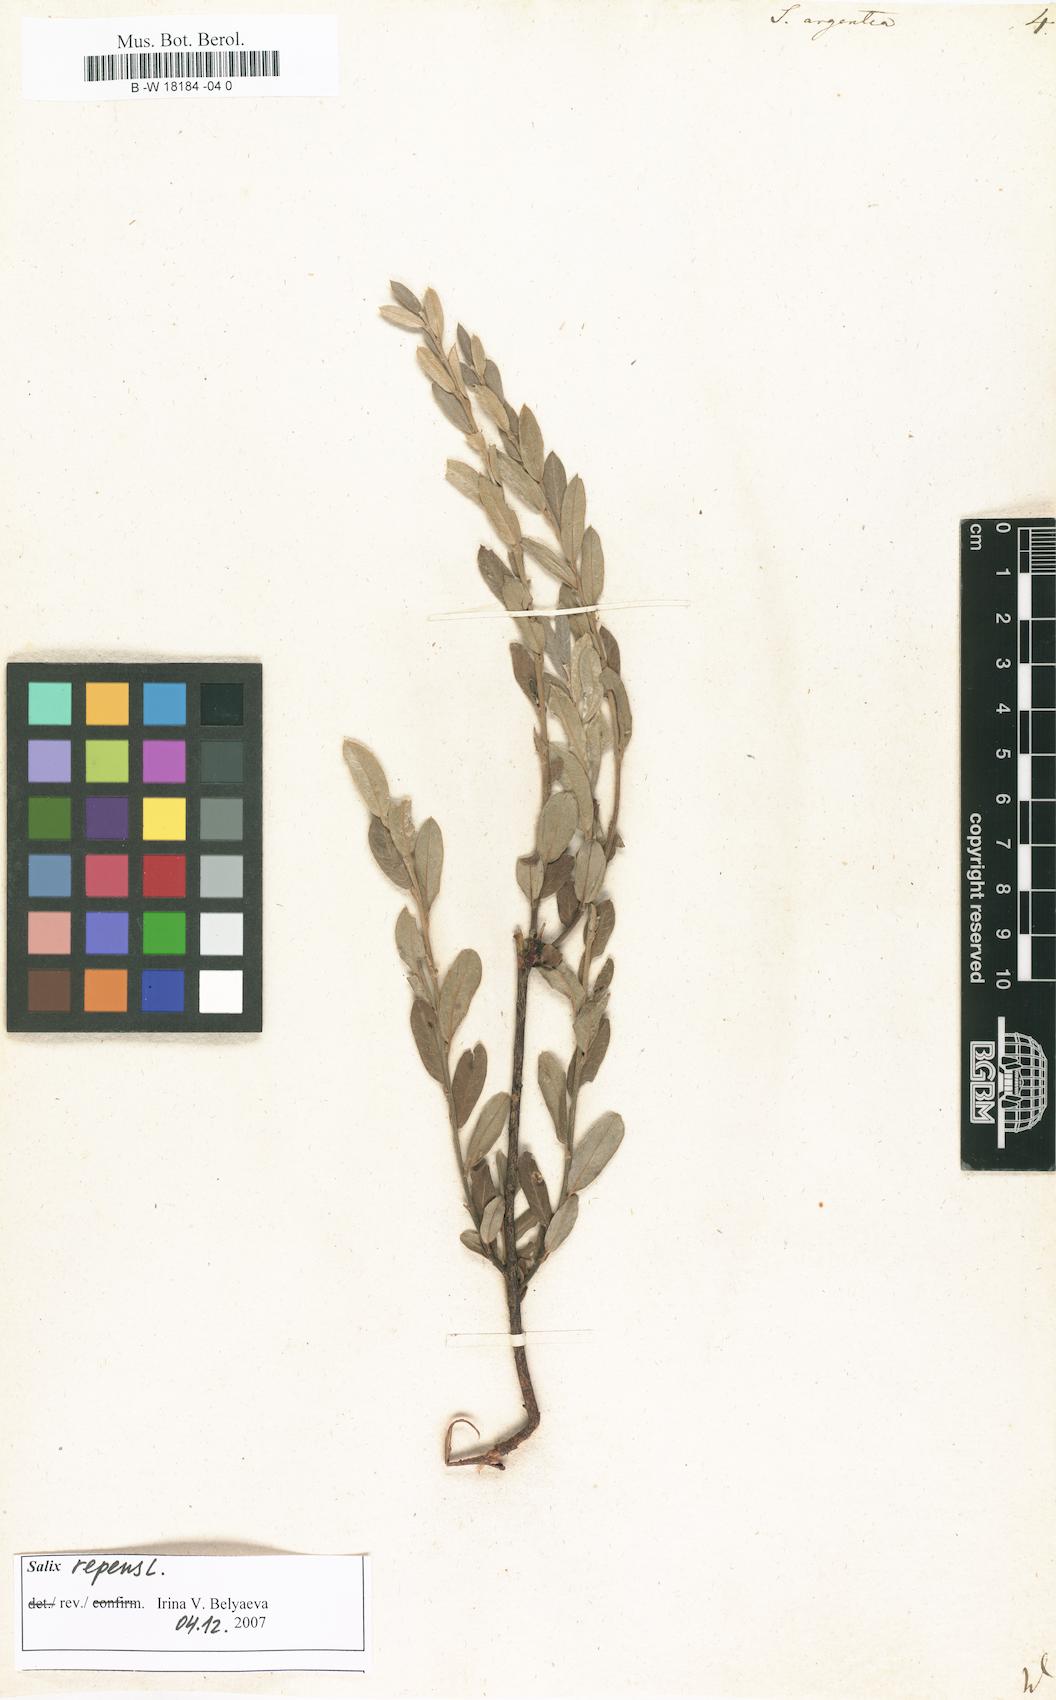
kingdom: Plantae
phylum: Tracheophyta
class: Magnoliopsida
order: Malpighiales
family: Salicaceae
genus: Salix
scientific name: Salix repens
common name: Creeping willow
